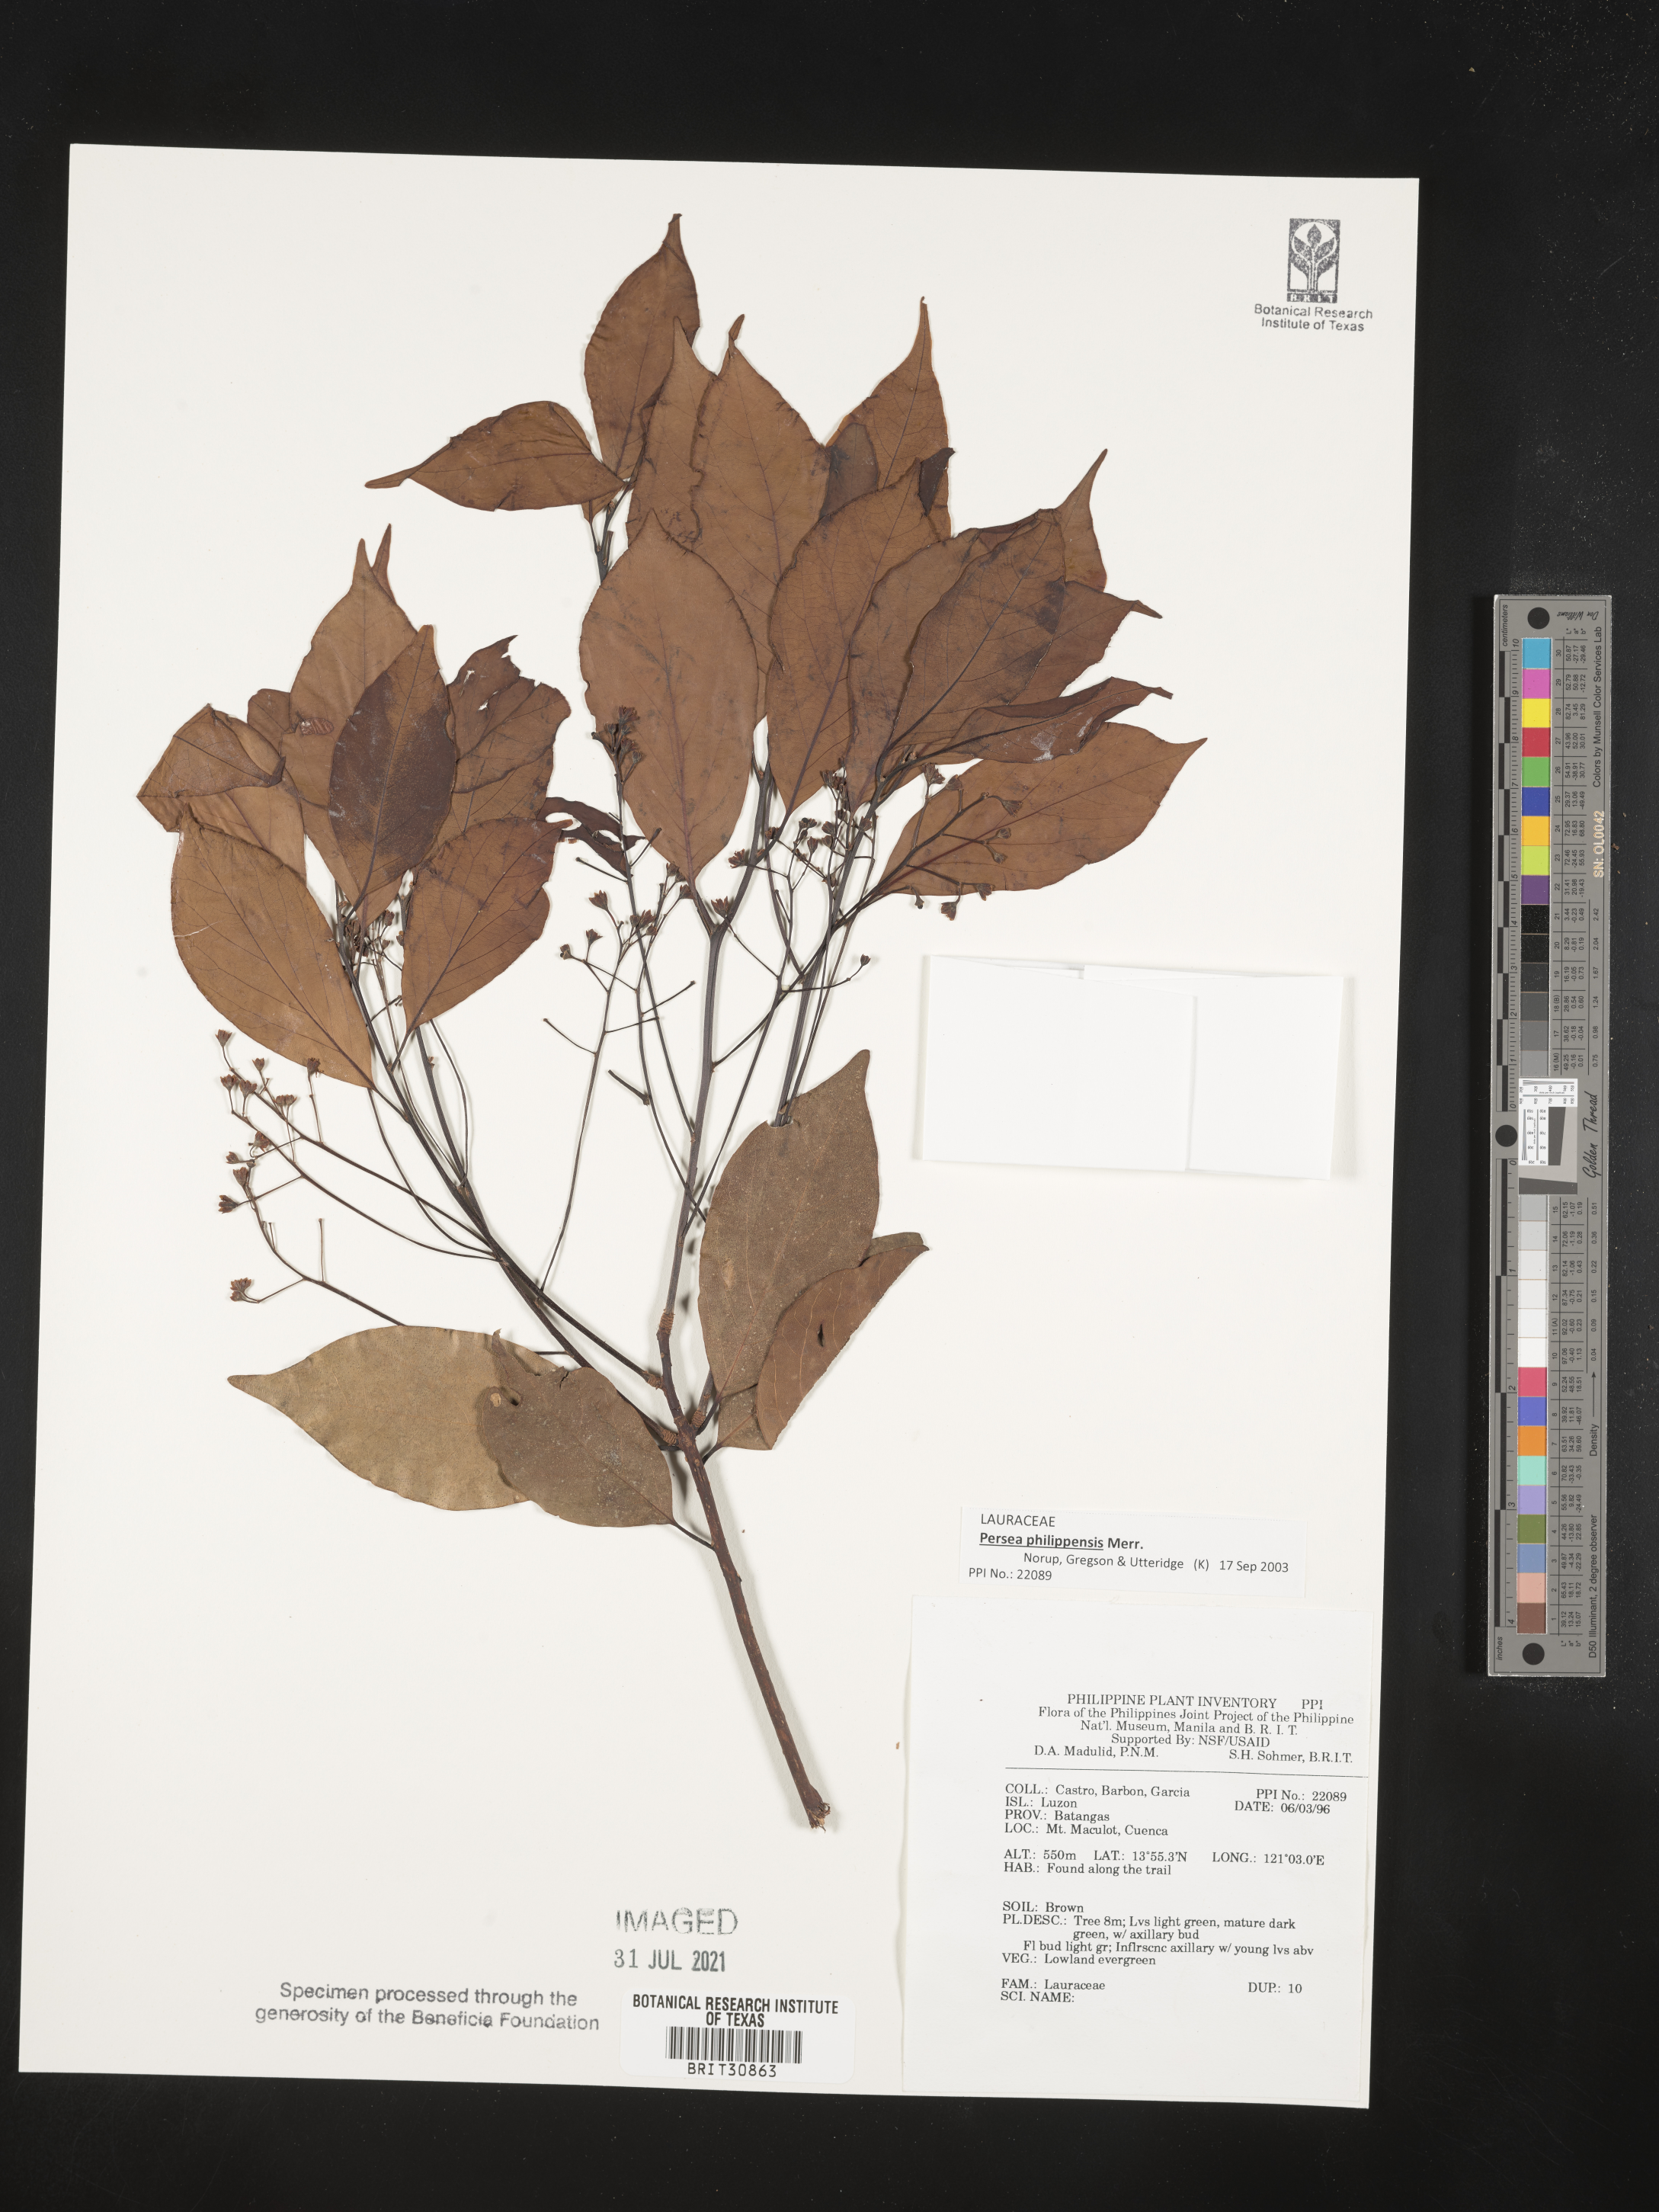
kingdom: Plantae
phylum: Tracheophyta
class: Magnoliopsida
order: Laurales
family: Lauraceae
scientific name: Lauraceae
